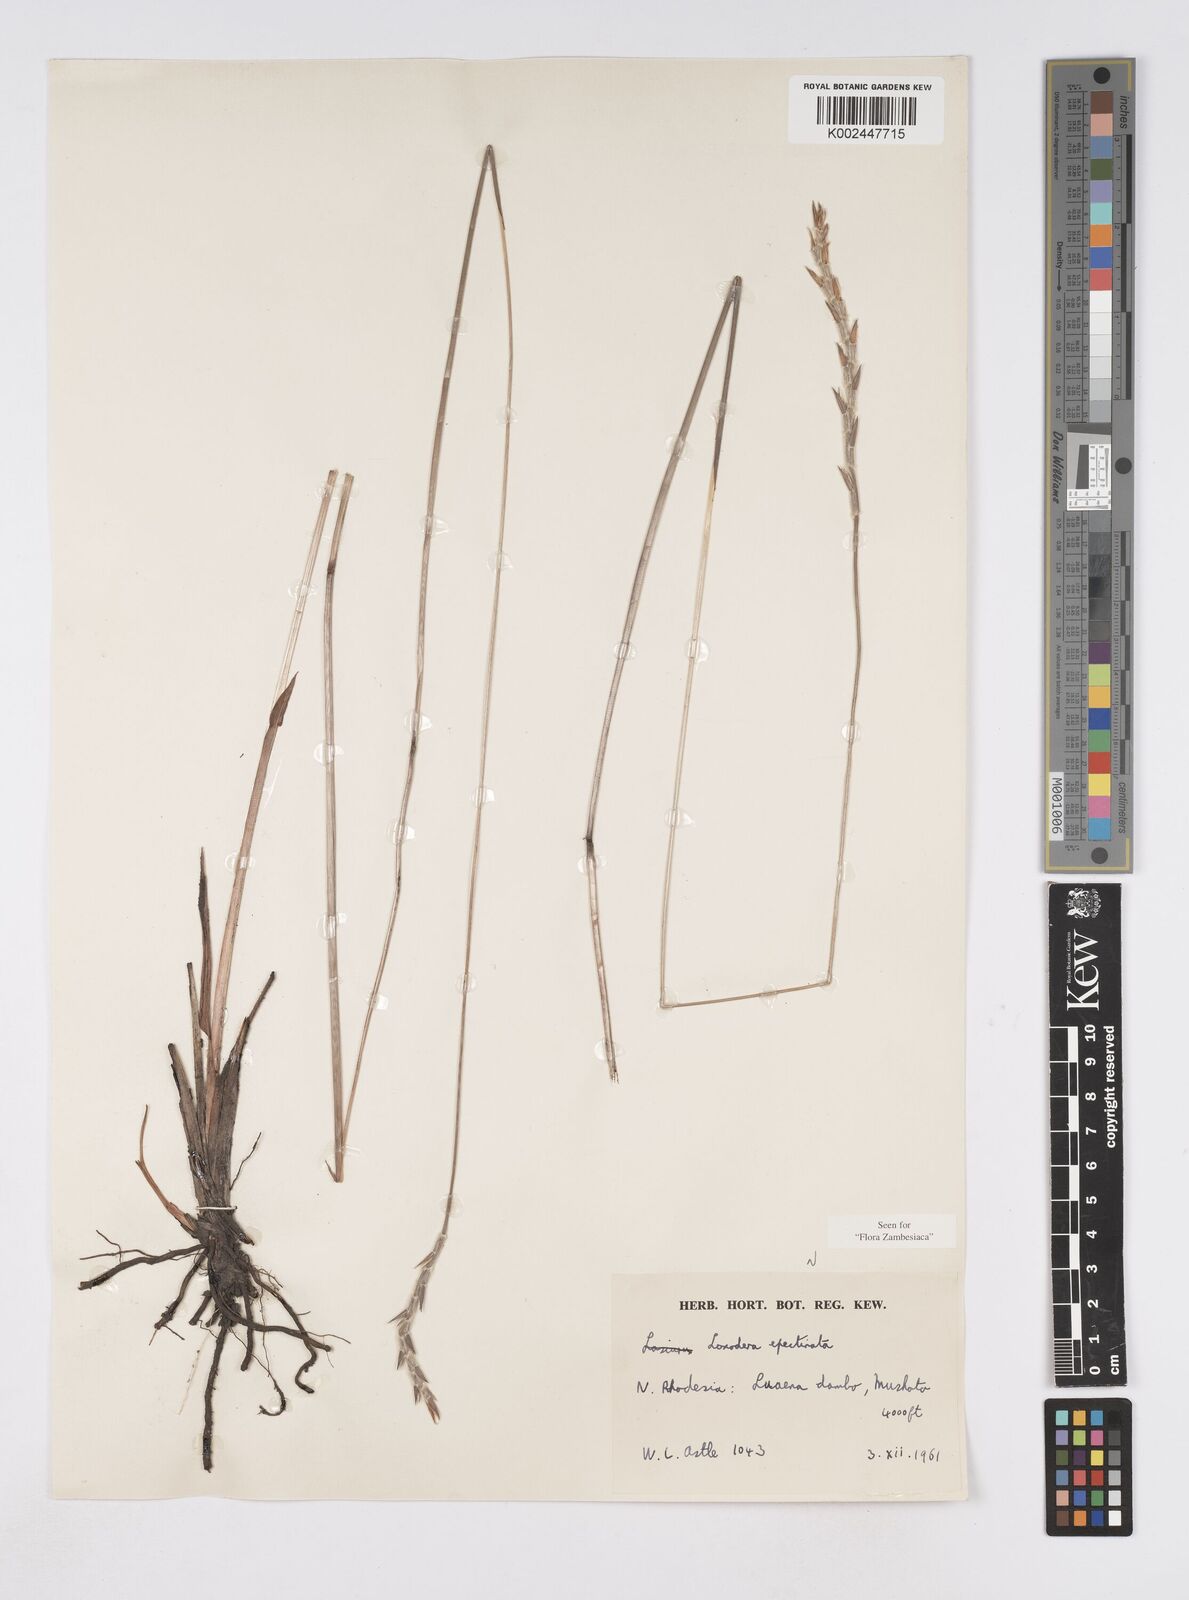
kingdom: Plantae
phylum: Tracheophyta
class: Liliopsida
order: Poales
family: Poaceae
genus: Loxodera
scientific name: Loxodera caespitosa
